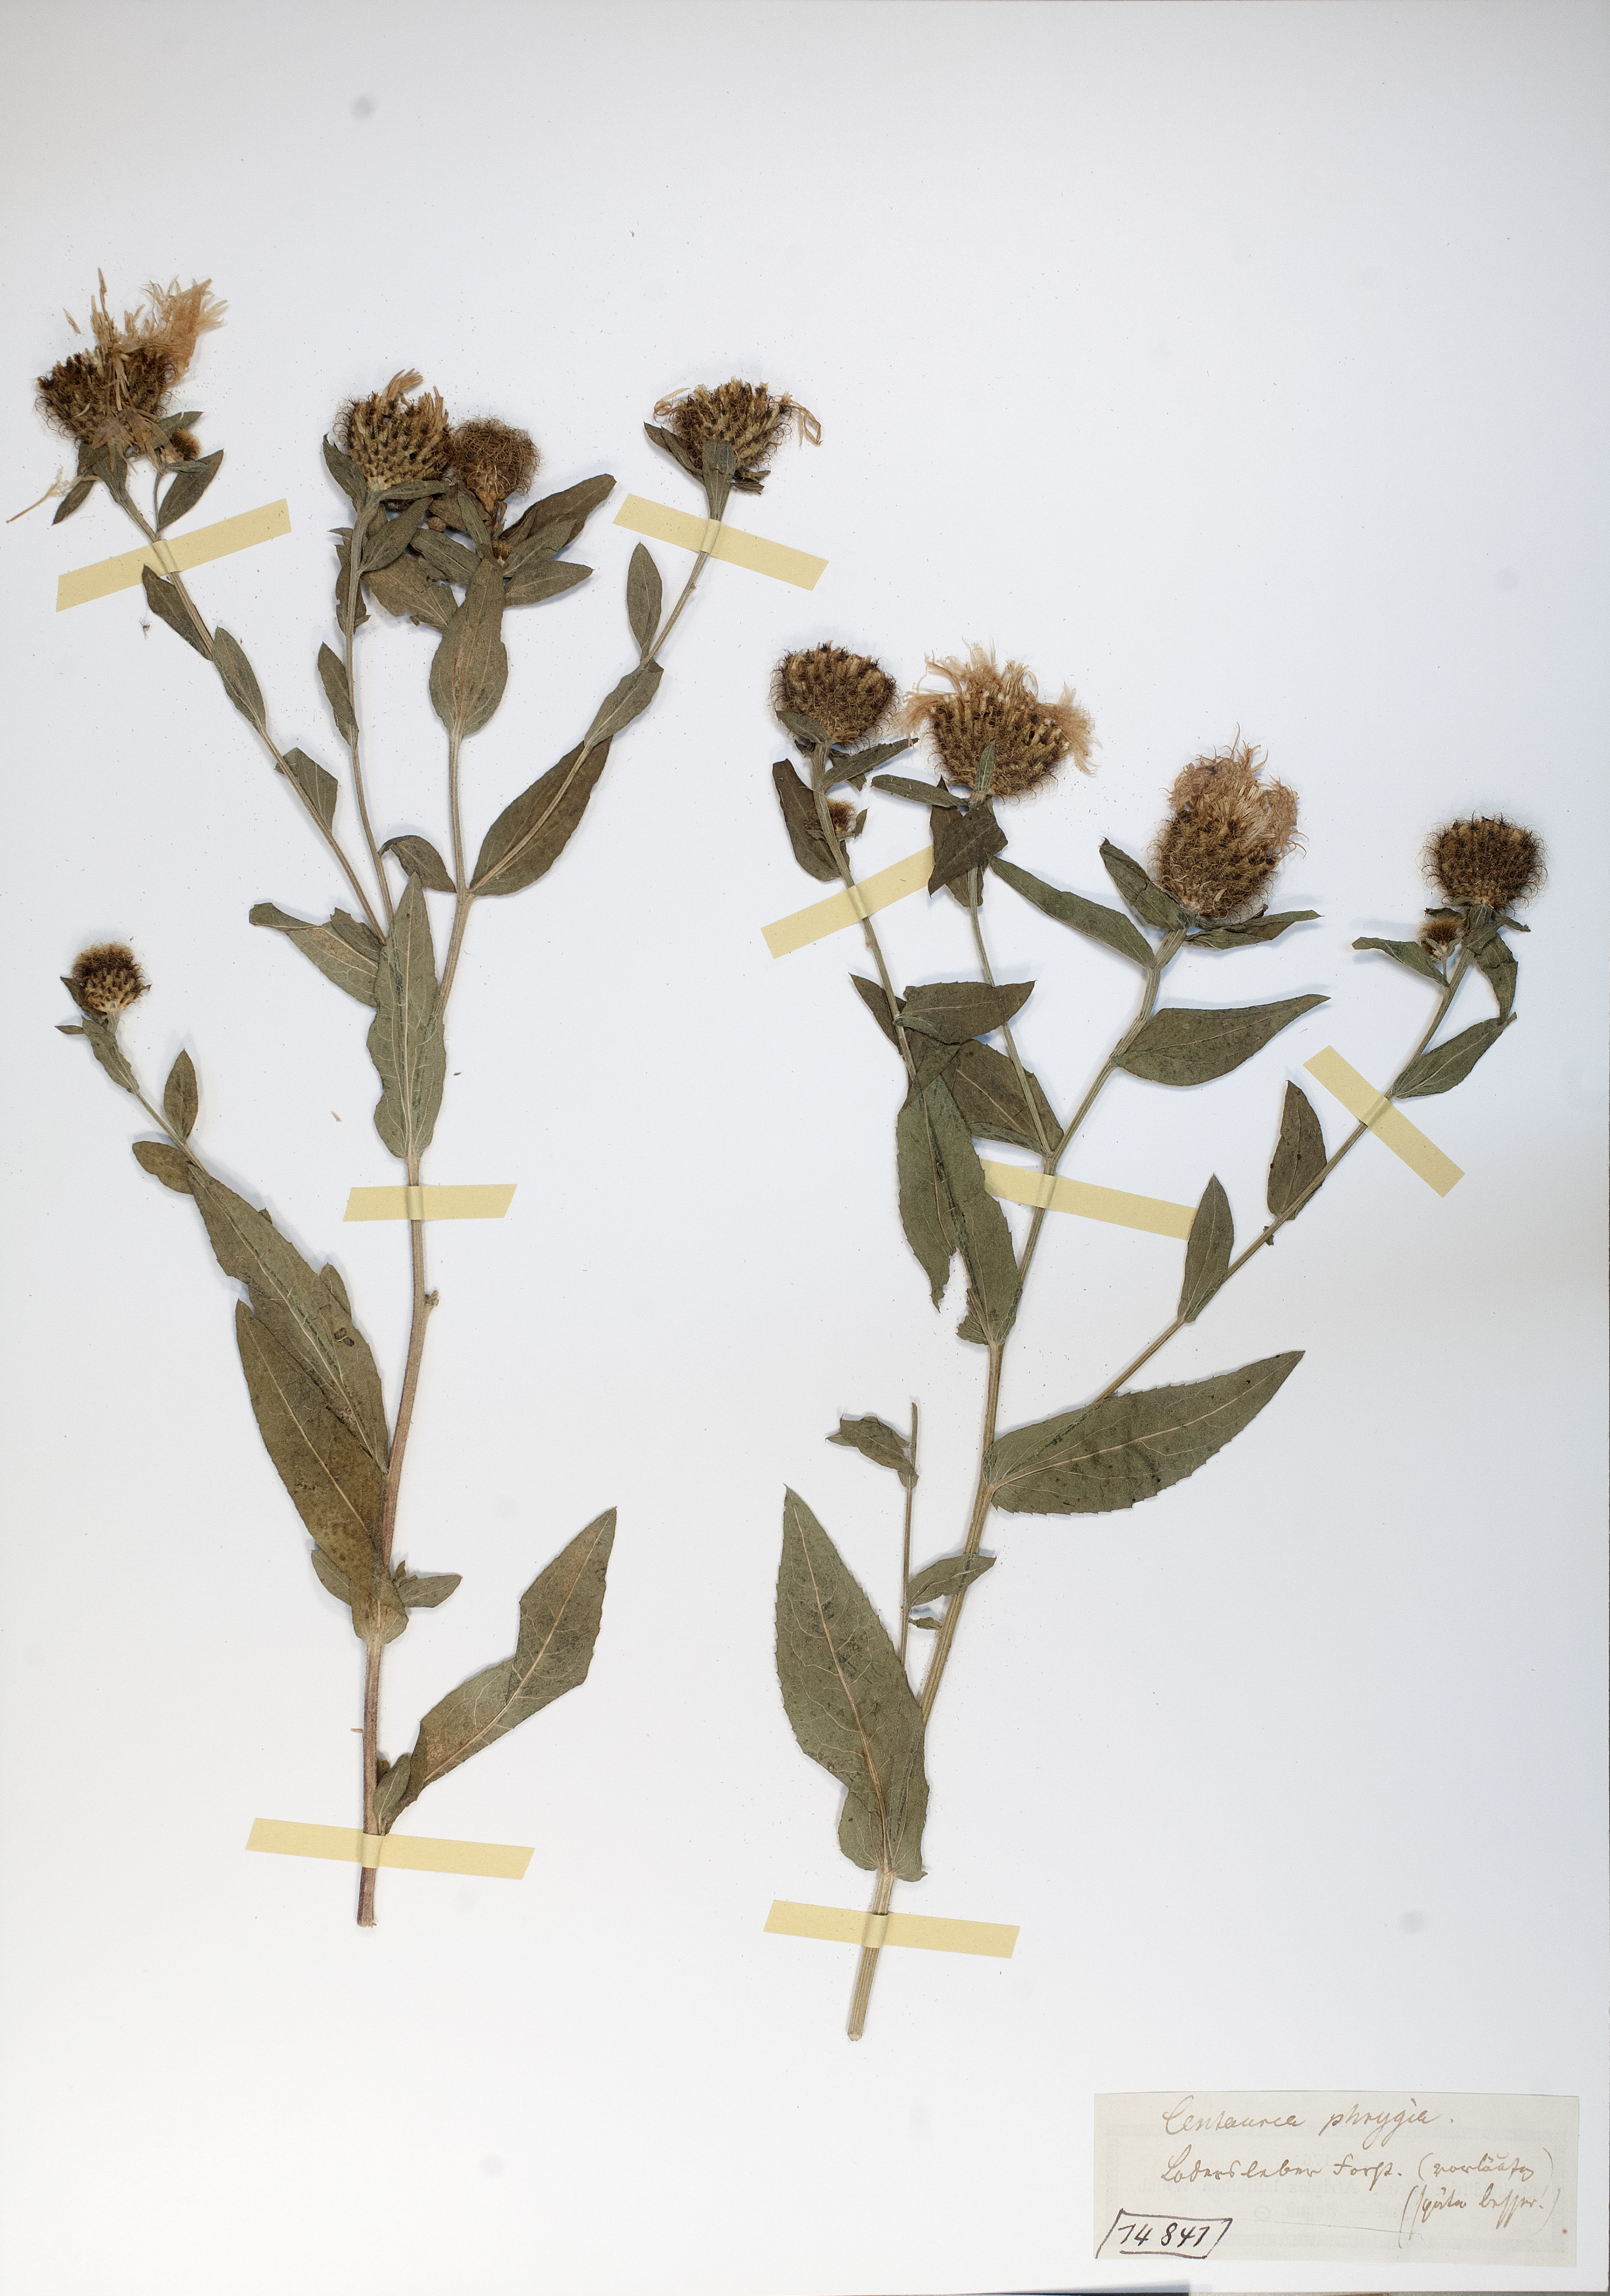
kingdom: Plantae
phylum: Tracheophyta
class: Magnoliopsida
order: Asterales
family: Asteraceae
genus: Centaurea
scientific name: Centaurea phrygia
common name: Wig knapweed
